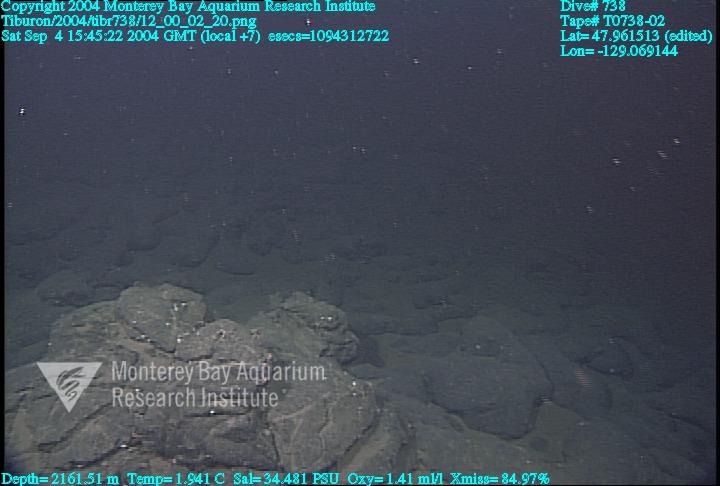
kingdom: Animalia
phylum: Porifera
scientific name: Porifera
